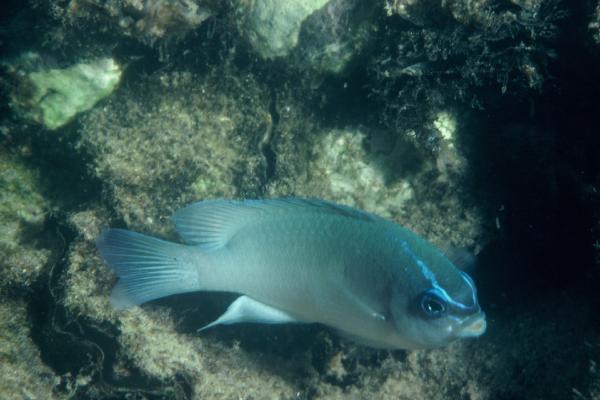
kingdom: Animalia
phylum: Chordata
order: Perciformes
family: Pomacentridae
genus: Chrysiptera
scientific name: Chrysiptera glauca
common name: Grey demoiselle
